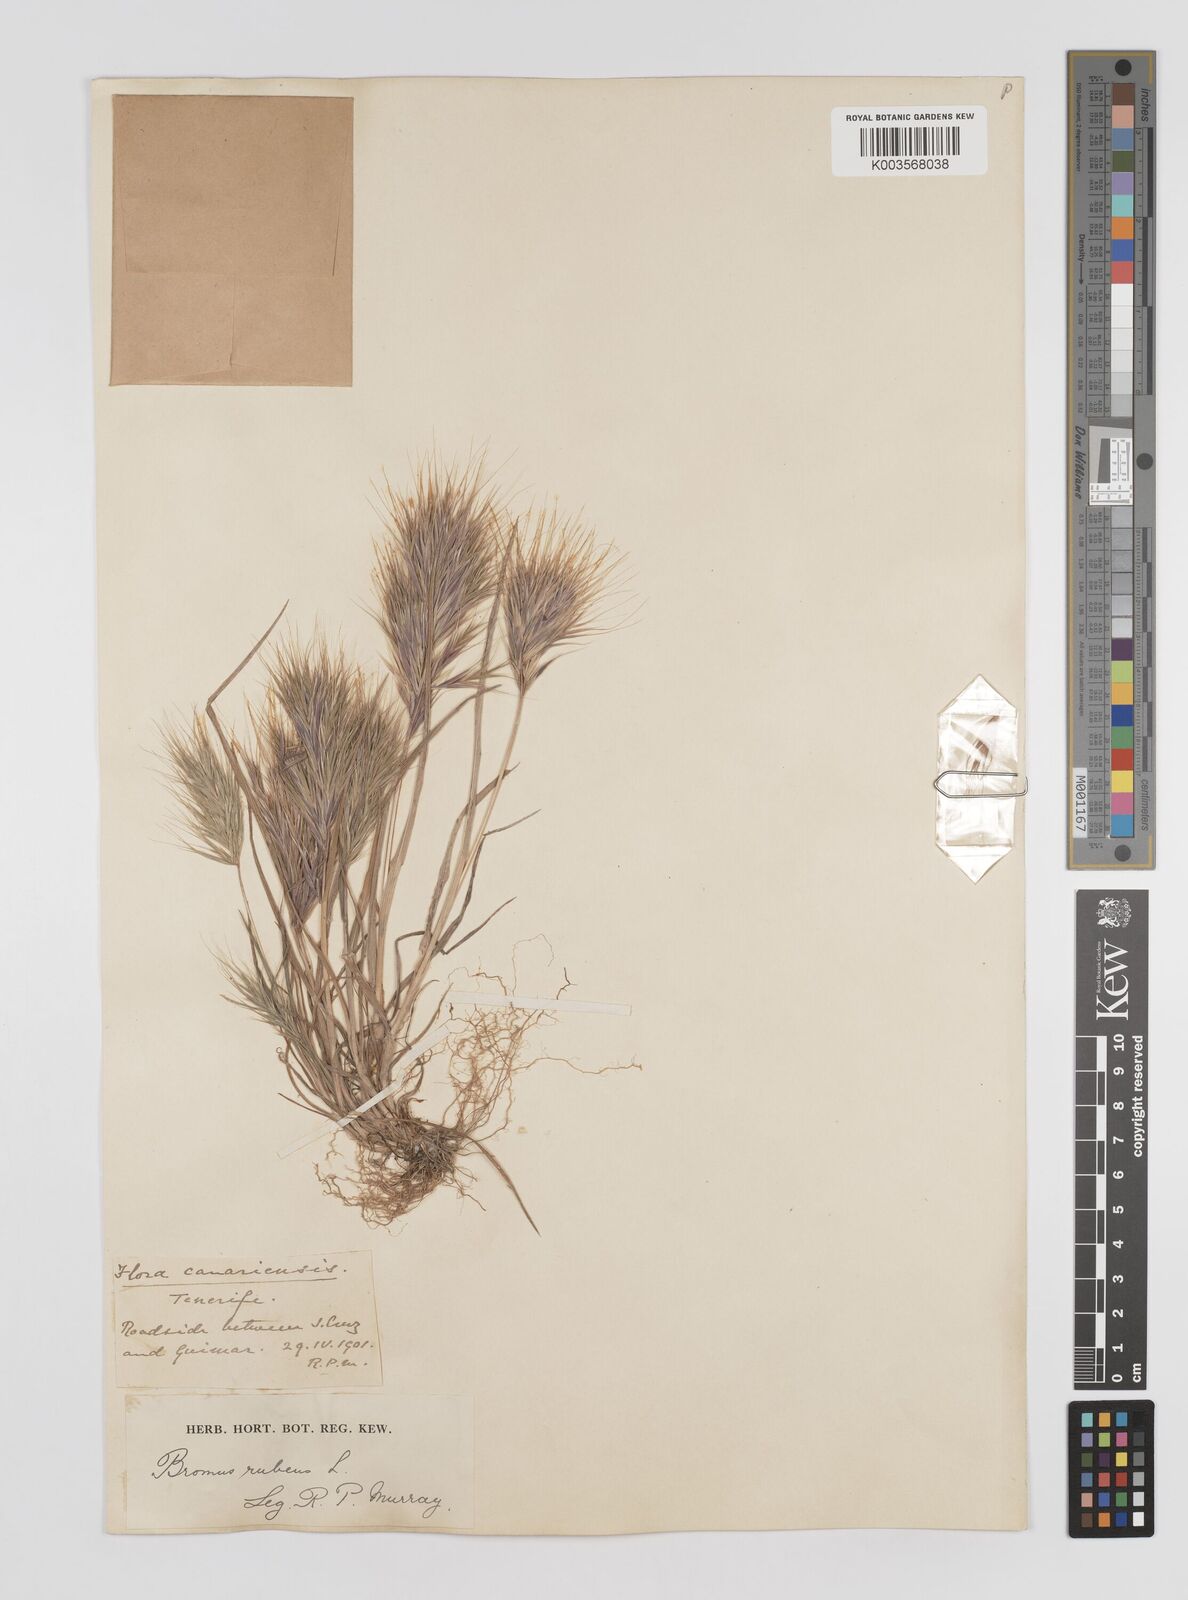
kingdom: Plantae
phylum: Tracheophyta
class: Liliopsida
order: Poales
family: Poaceae
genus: Bromus
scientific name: Bromus
